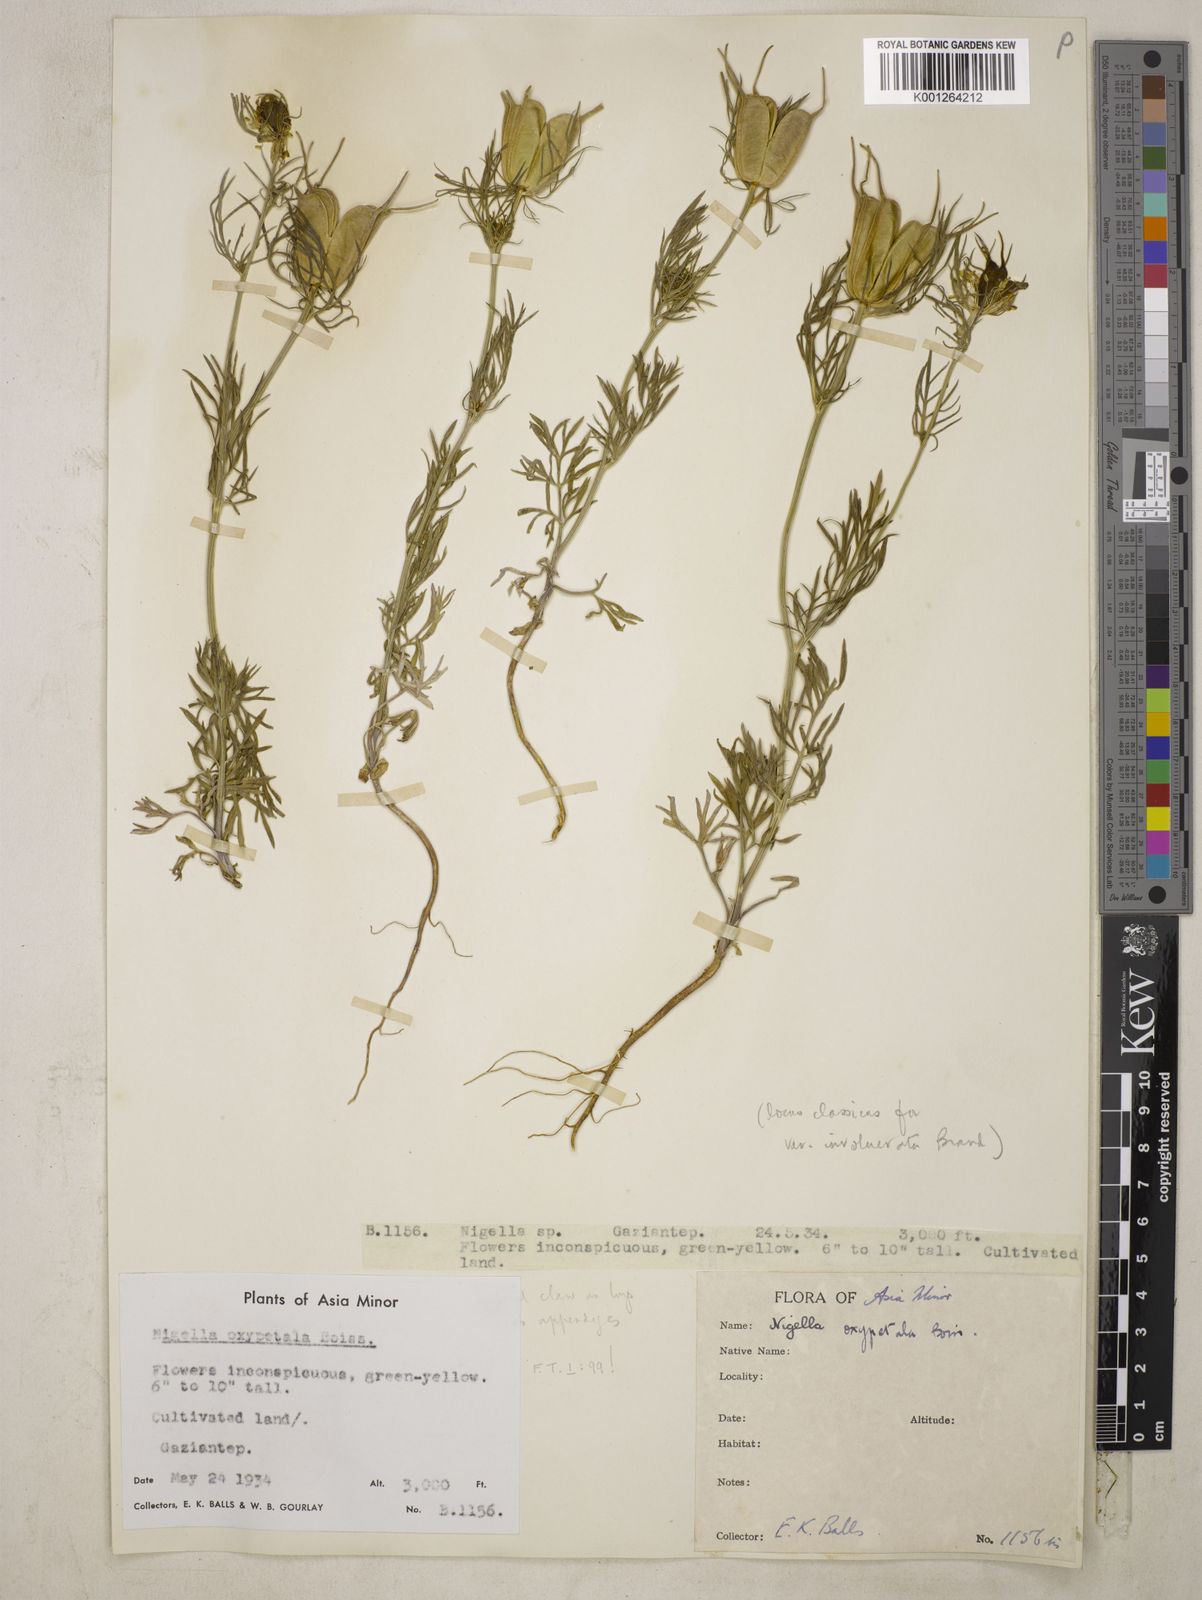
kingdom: Plantae
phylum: Tracheophyta
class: Magnoliopsida
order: Ranunculales
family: Ranunculaceae
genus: Nigella
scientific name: Nigella oxypetala
